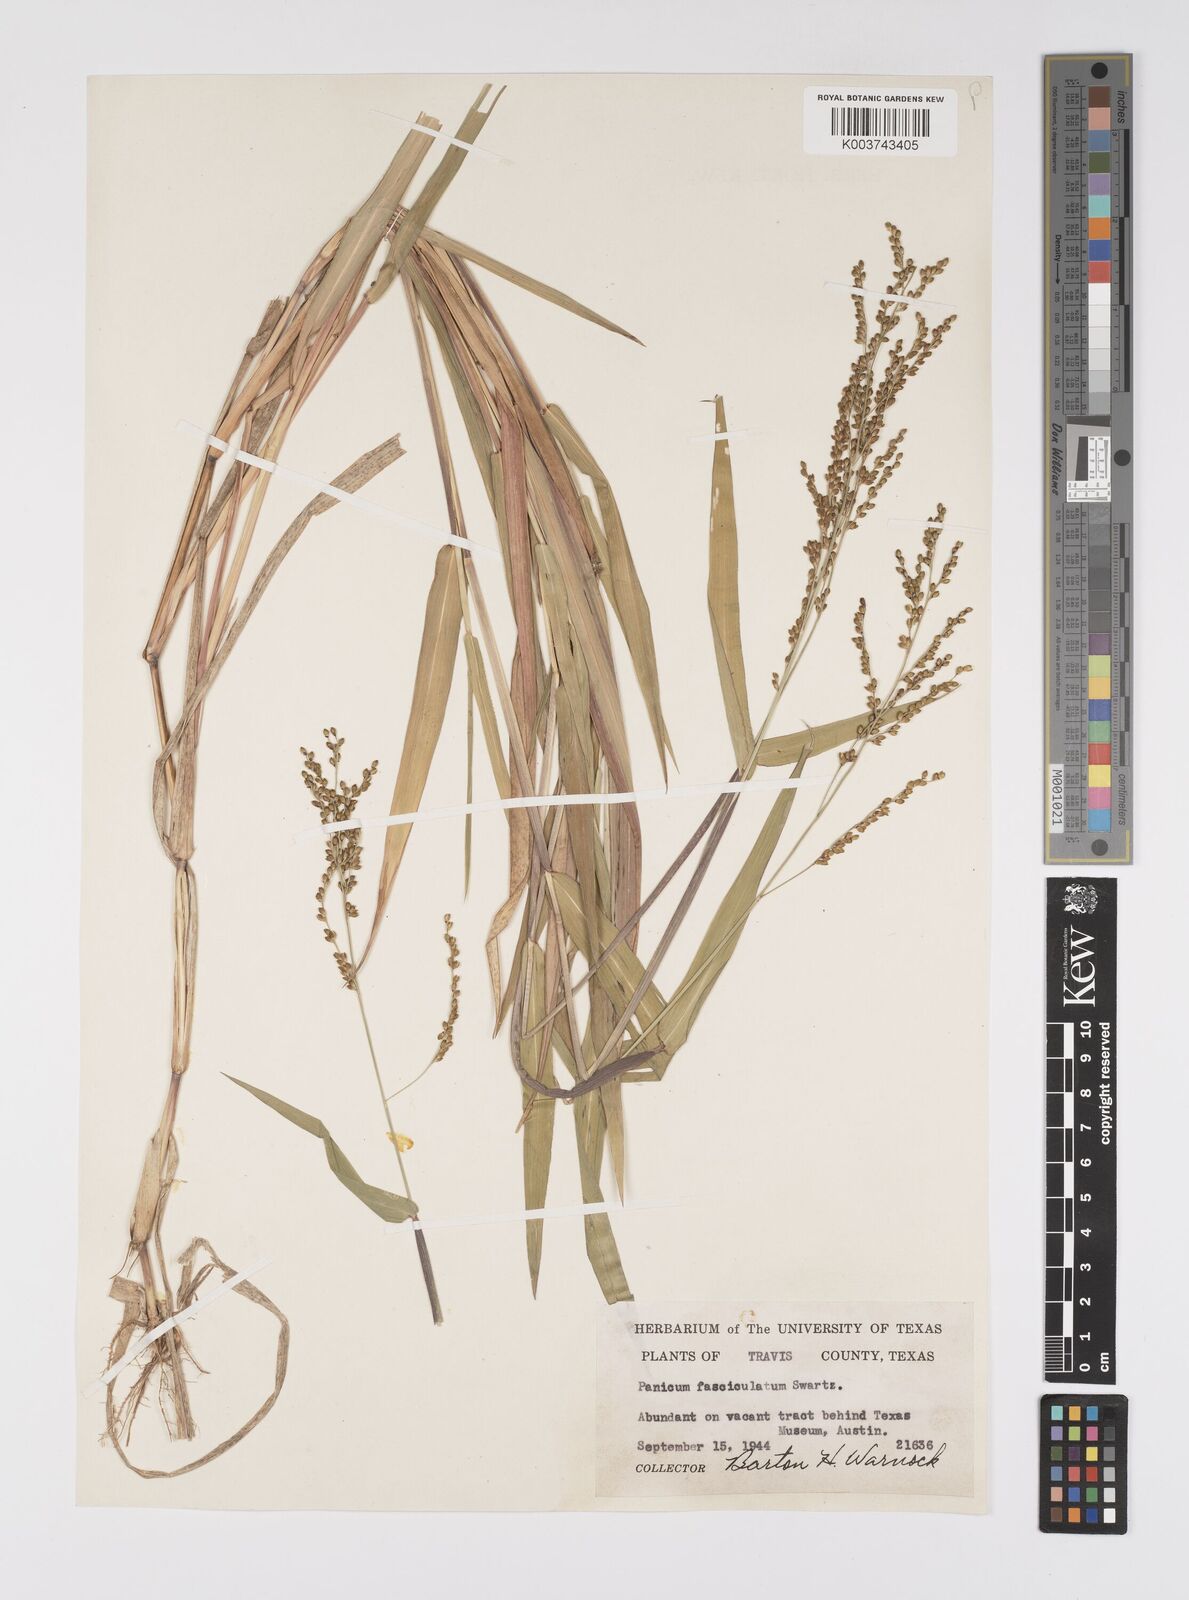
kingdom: Plantae
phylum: Tracheophyta
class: Liliopsida
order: Poales
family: Poaceae
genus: Urochloa
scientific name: Urochloa fusca
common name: Browntop signal grass
